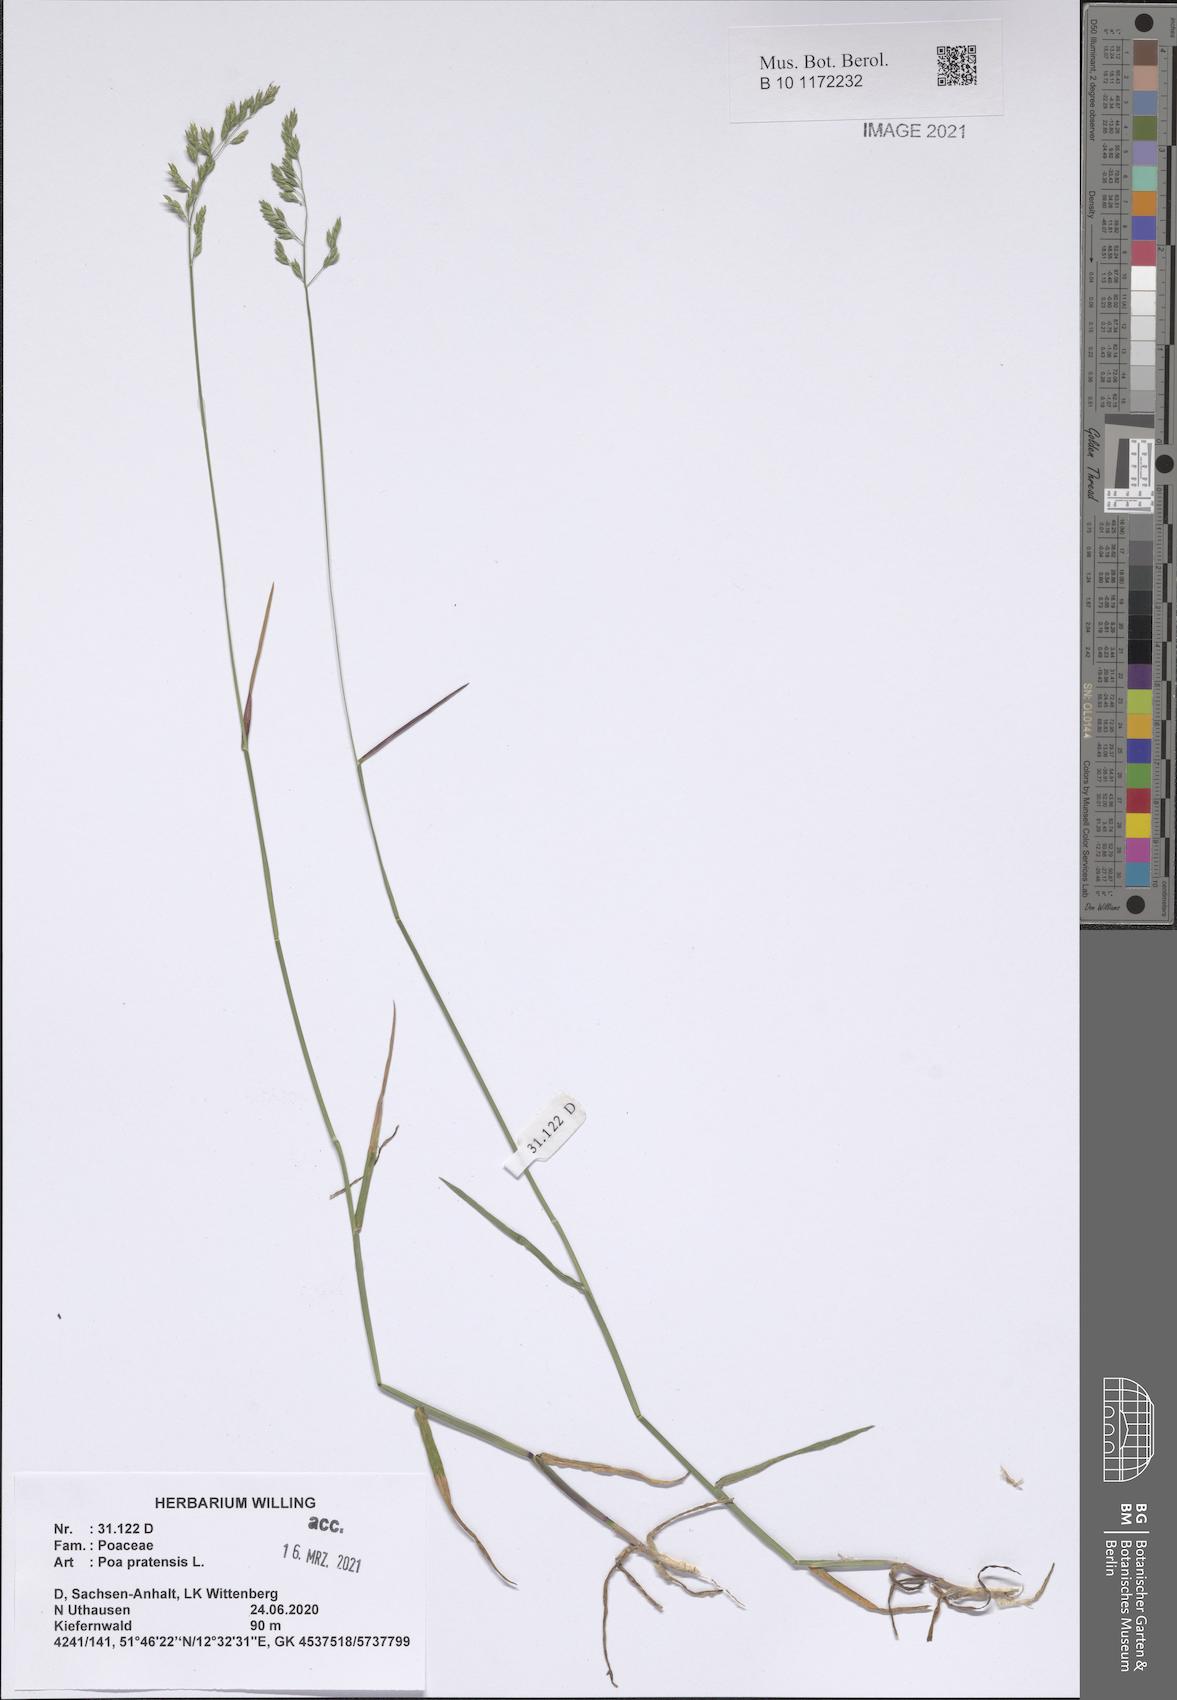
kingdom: Plantae
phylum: Tracheophyta
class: Liliopsida
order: Poales
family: Poaceae
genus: Poa
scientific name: Poa pratensis
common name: Kentucky bluegrass
